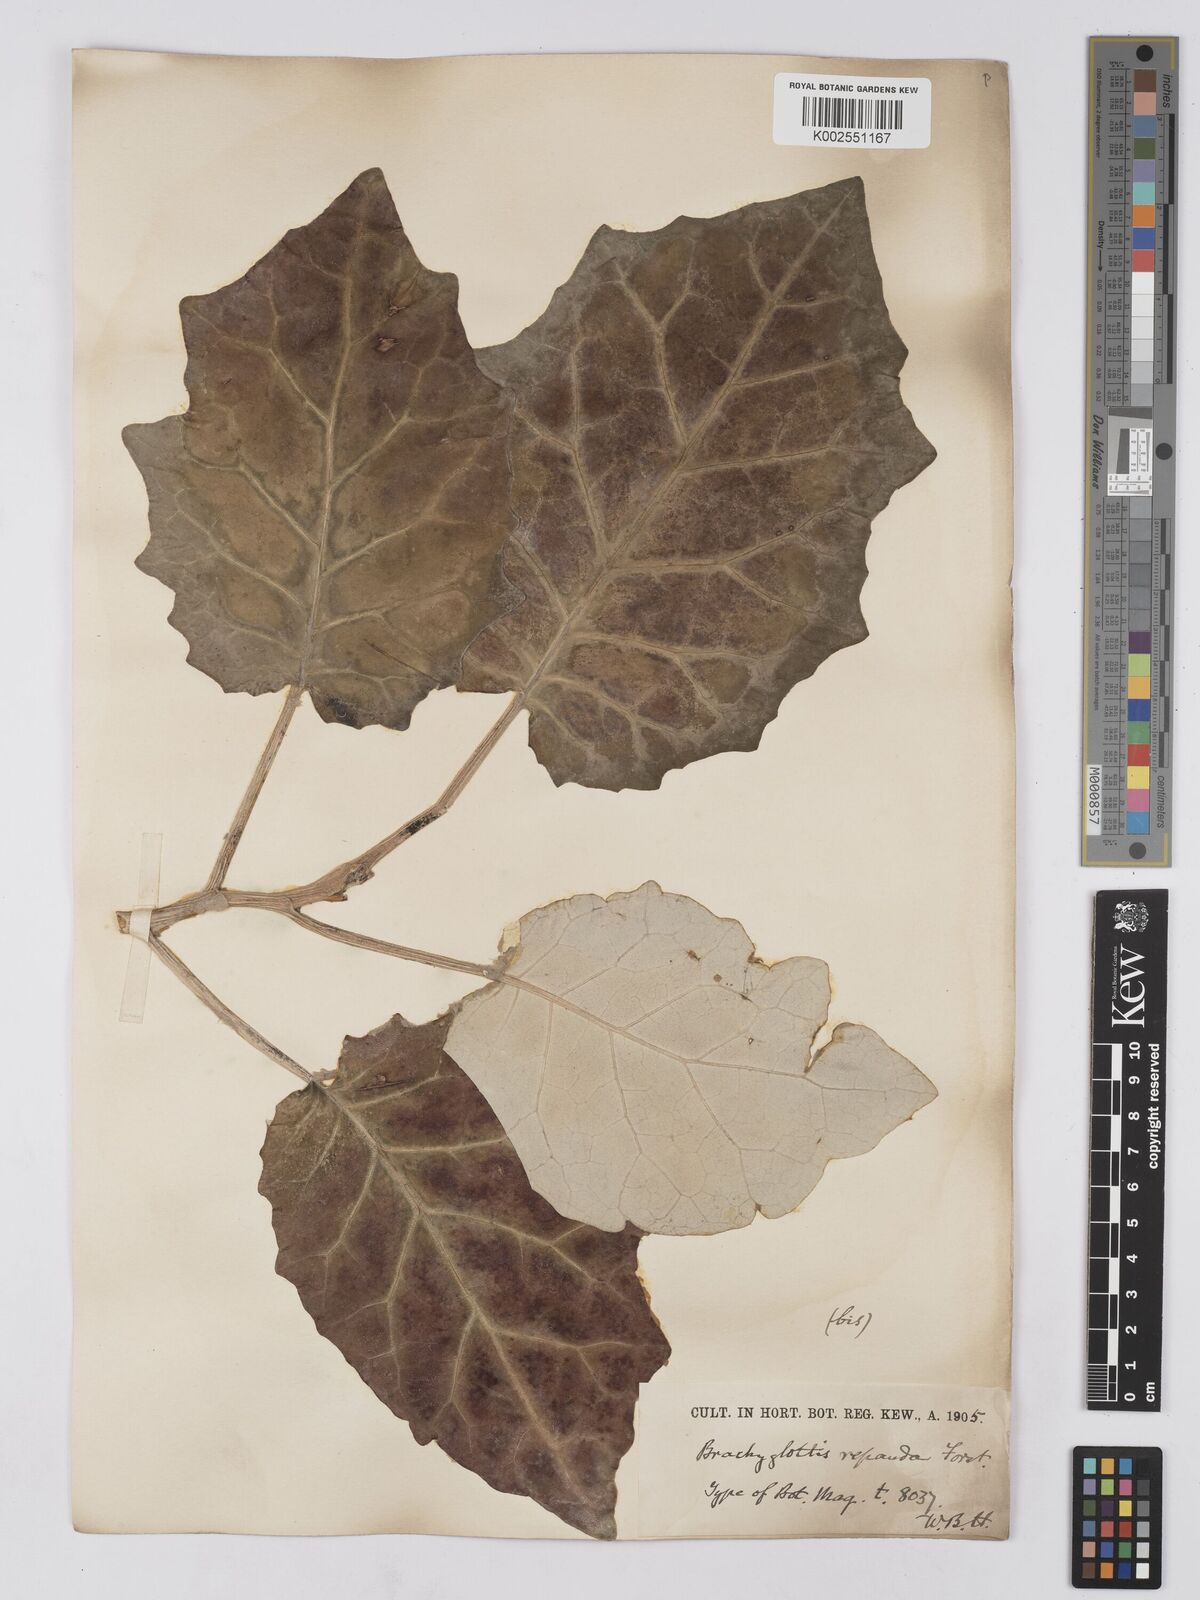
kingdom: Plantae
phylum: Tracheophyta
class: Magnoliopsida
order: Asterales
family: Asteraceae
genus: Brachyglottis
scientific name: Brachyglottis repanda
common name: Hedge ragwort
